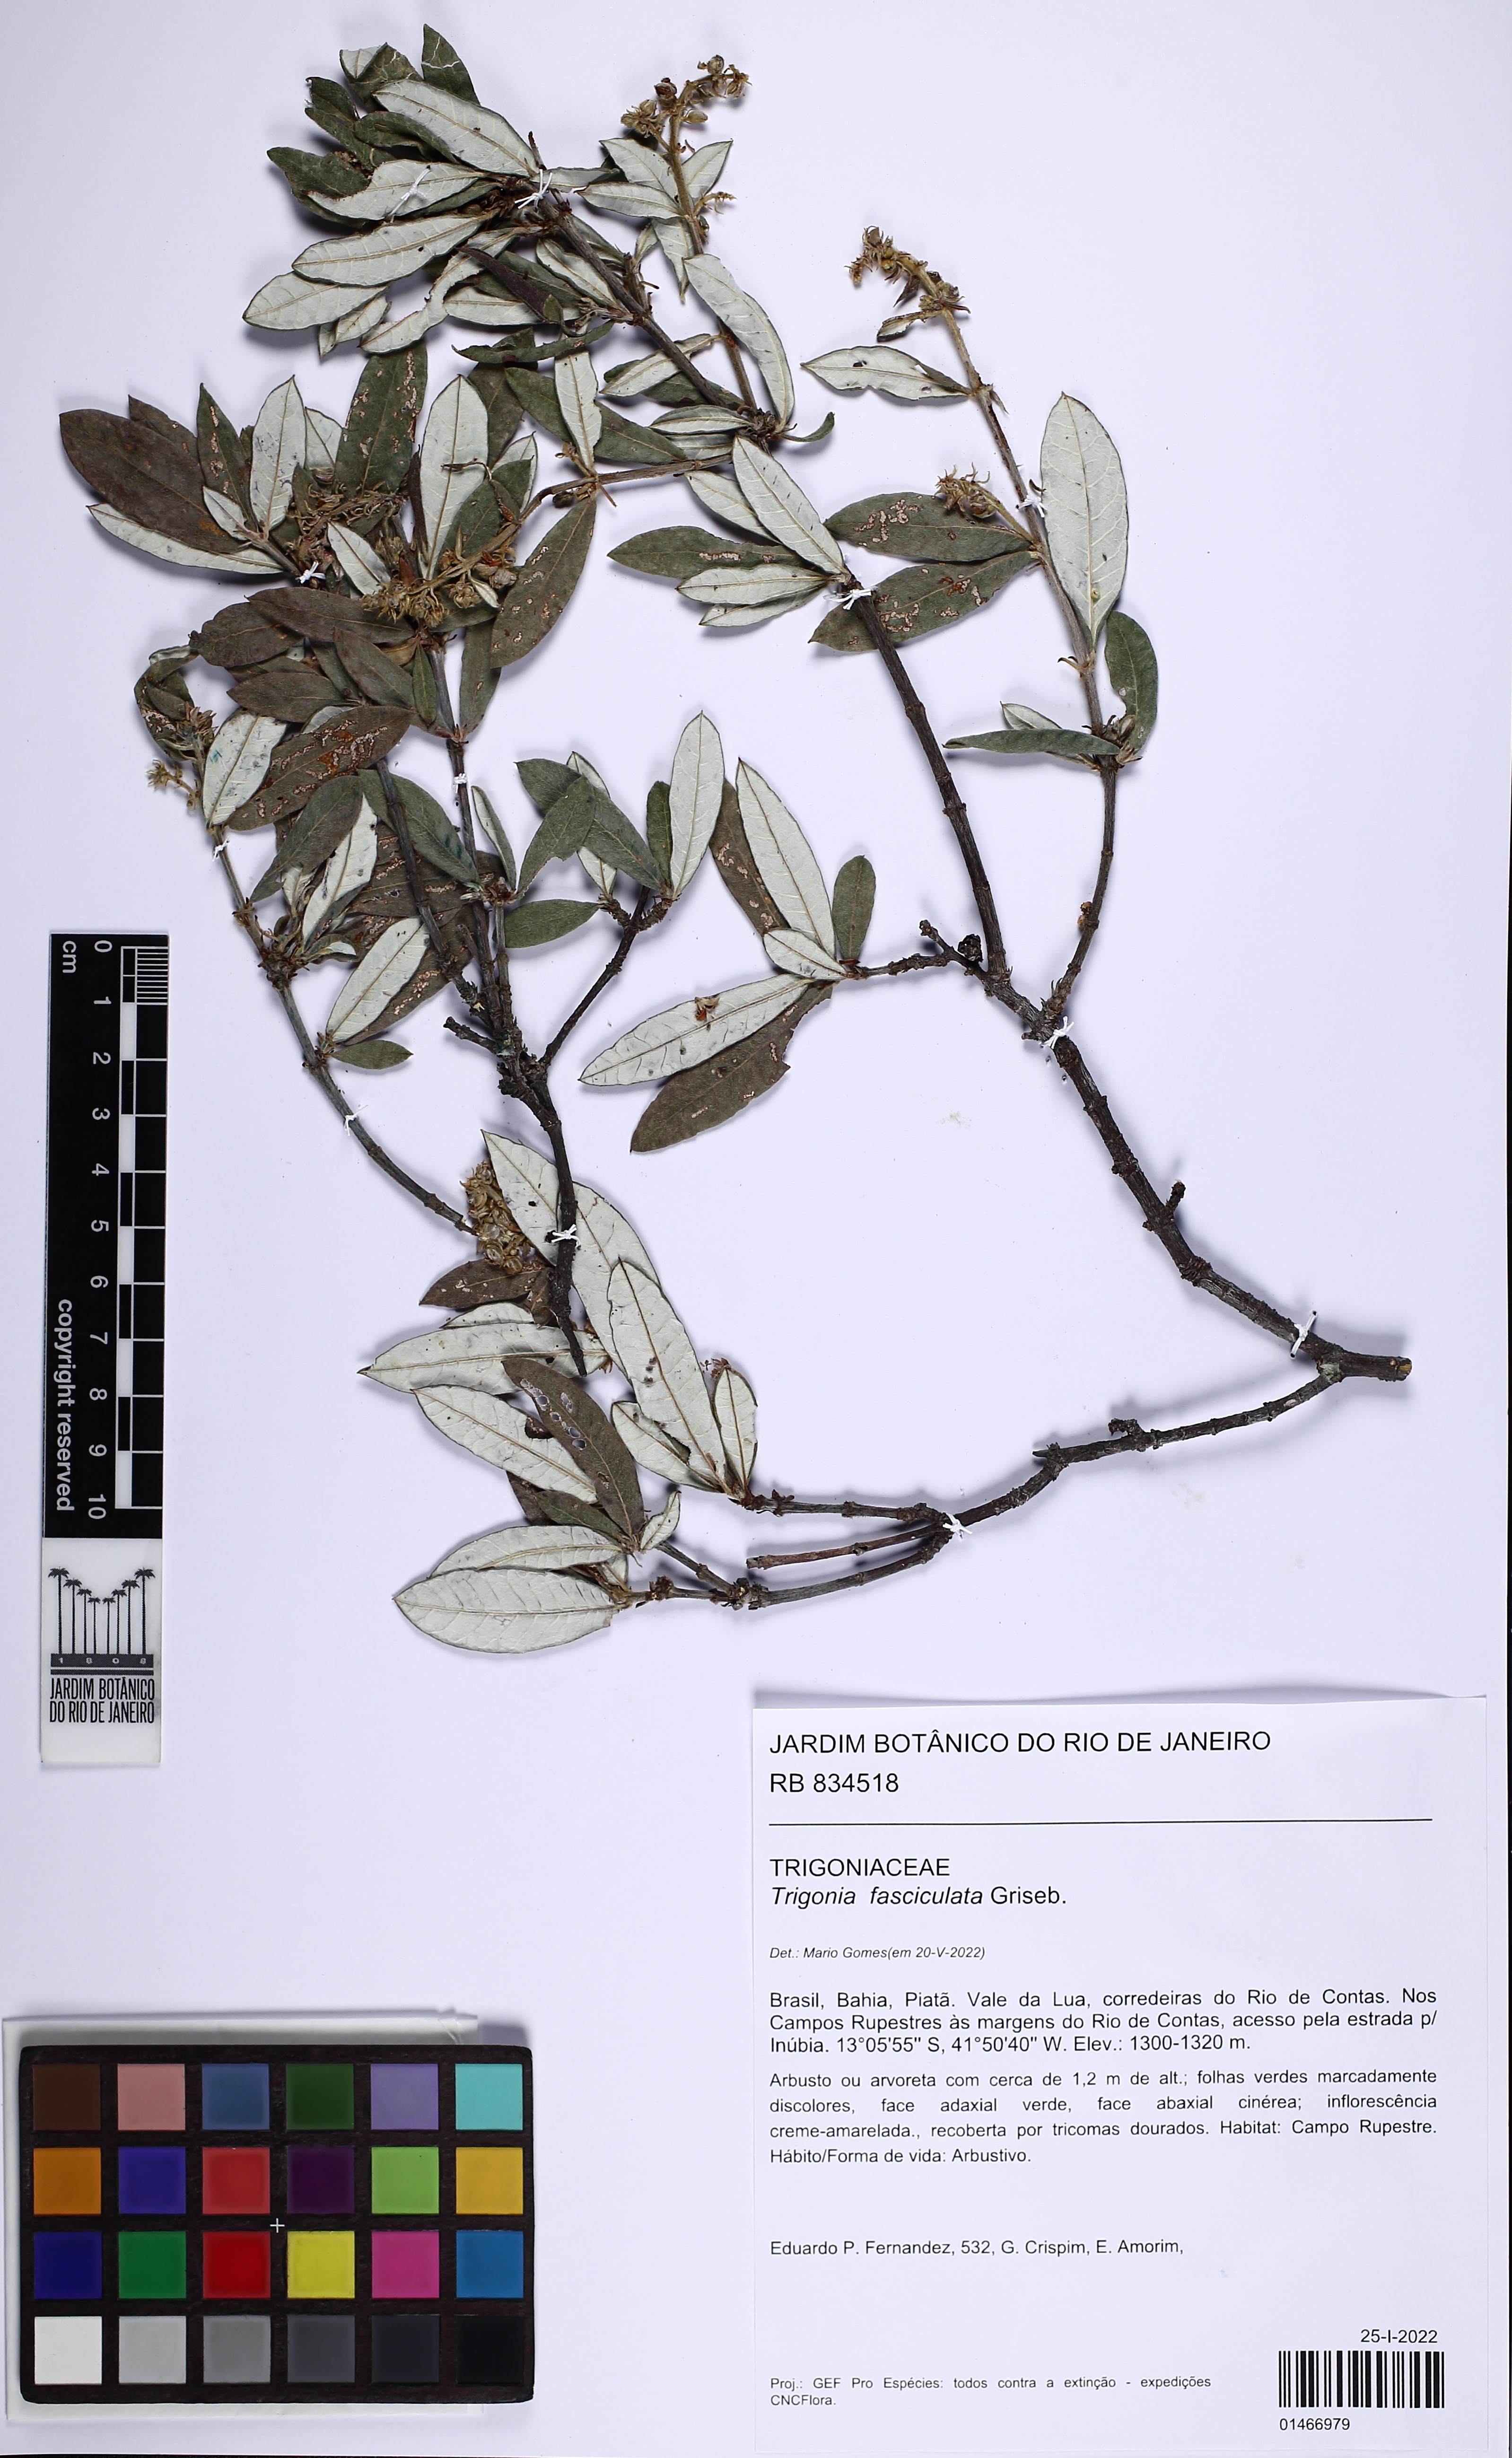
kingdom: Plantae
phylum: Tracheophyta
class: Magnoliopsida
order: Malpighiales
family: Trigoniaceae
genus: Trigonia
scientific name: Trigonia nivea
